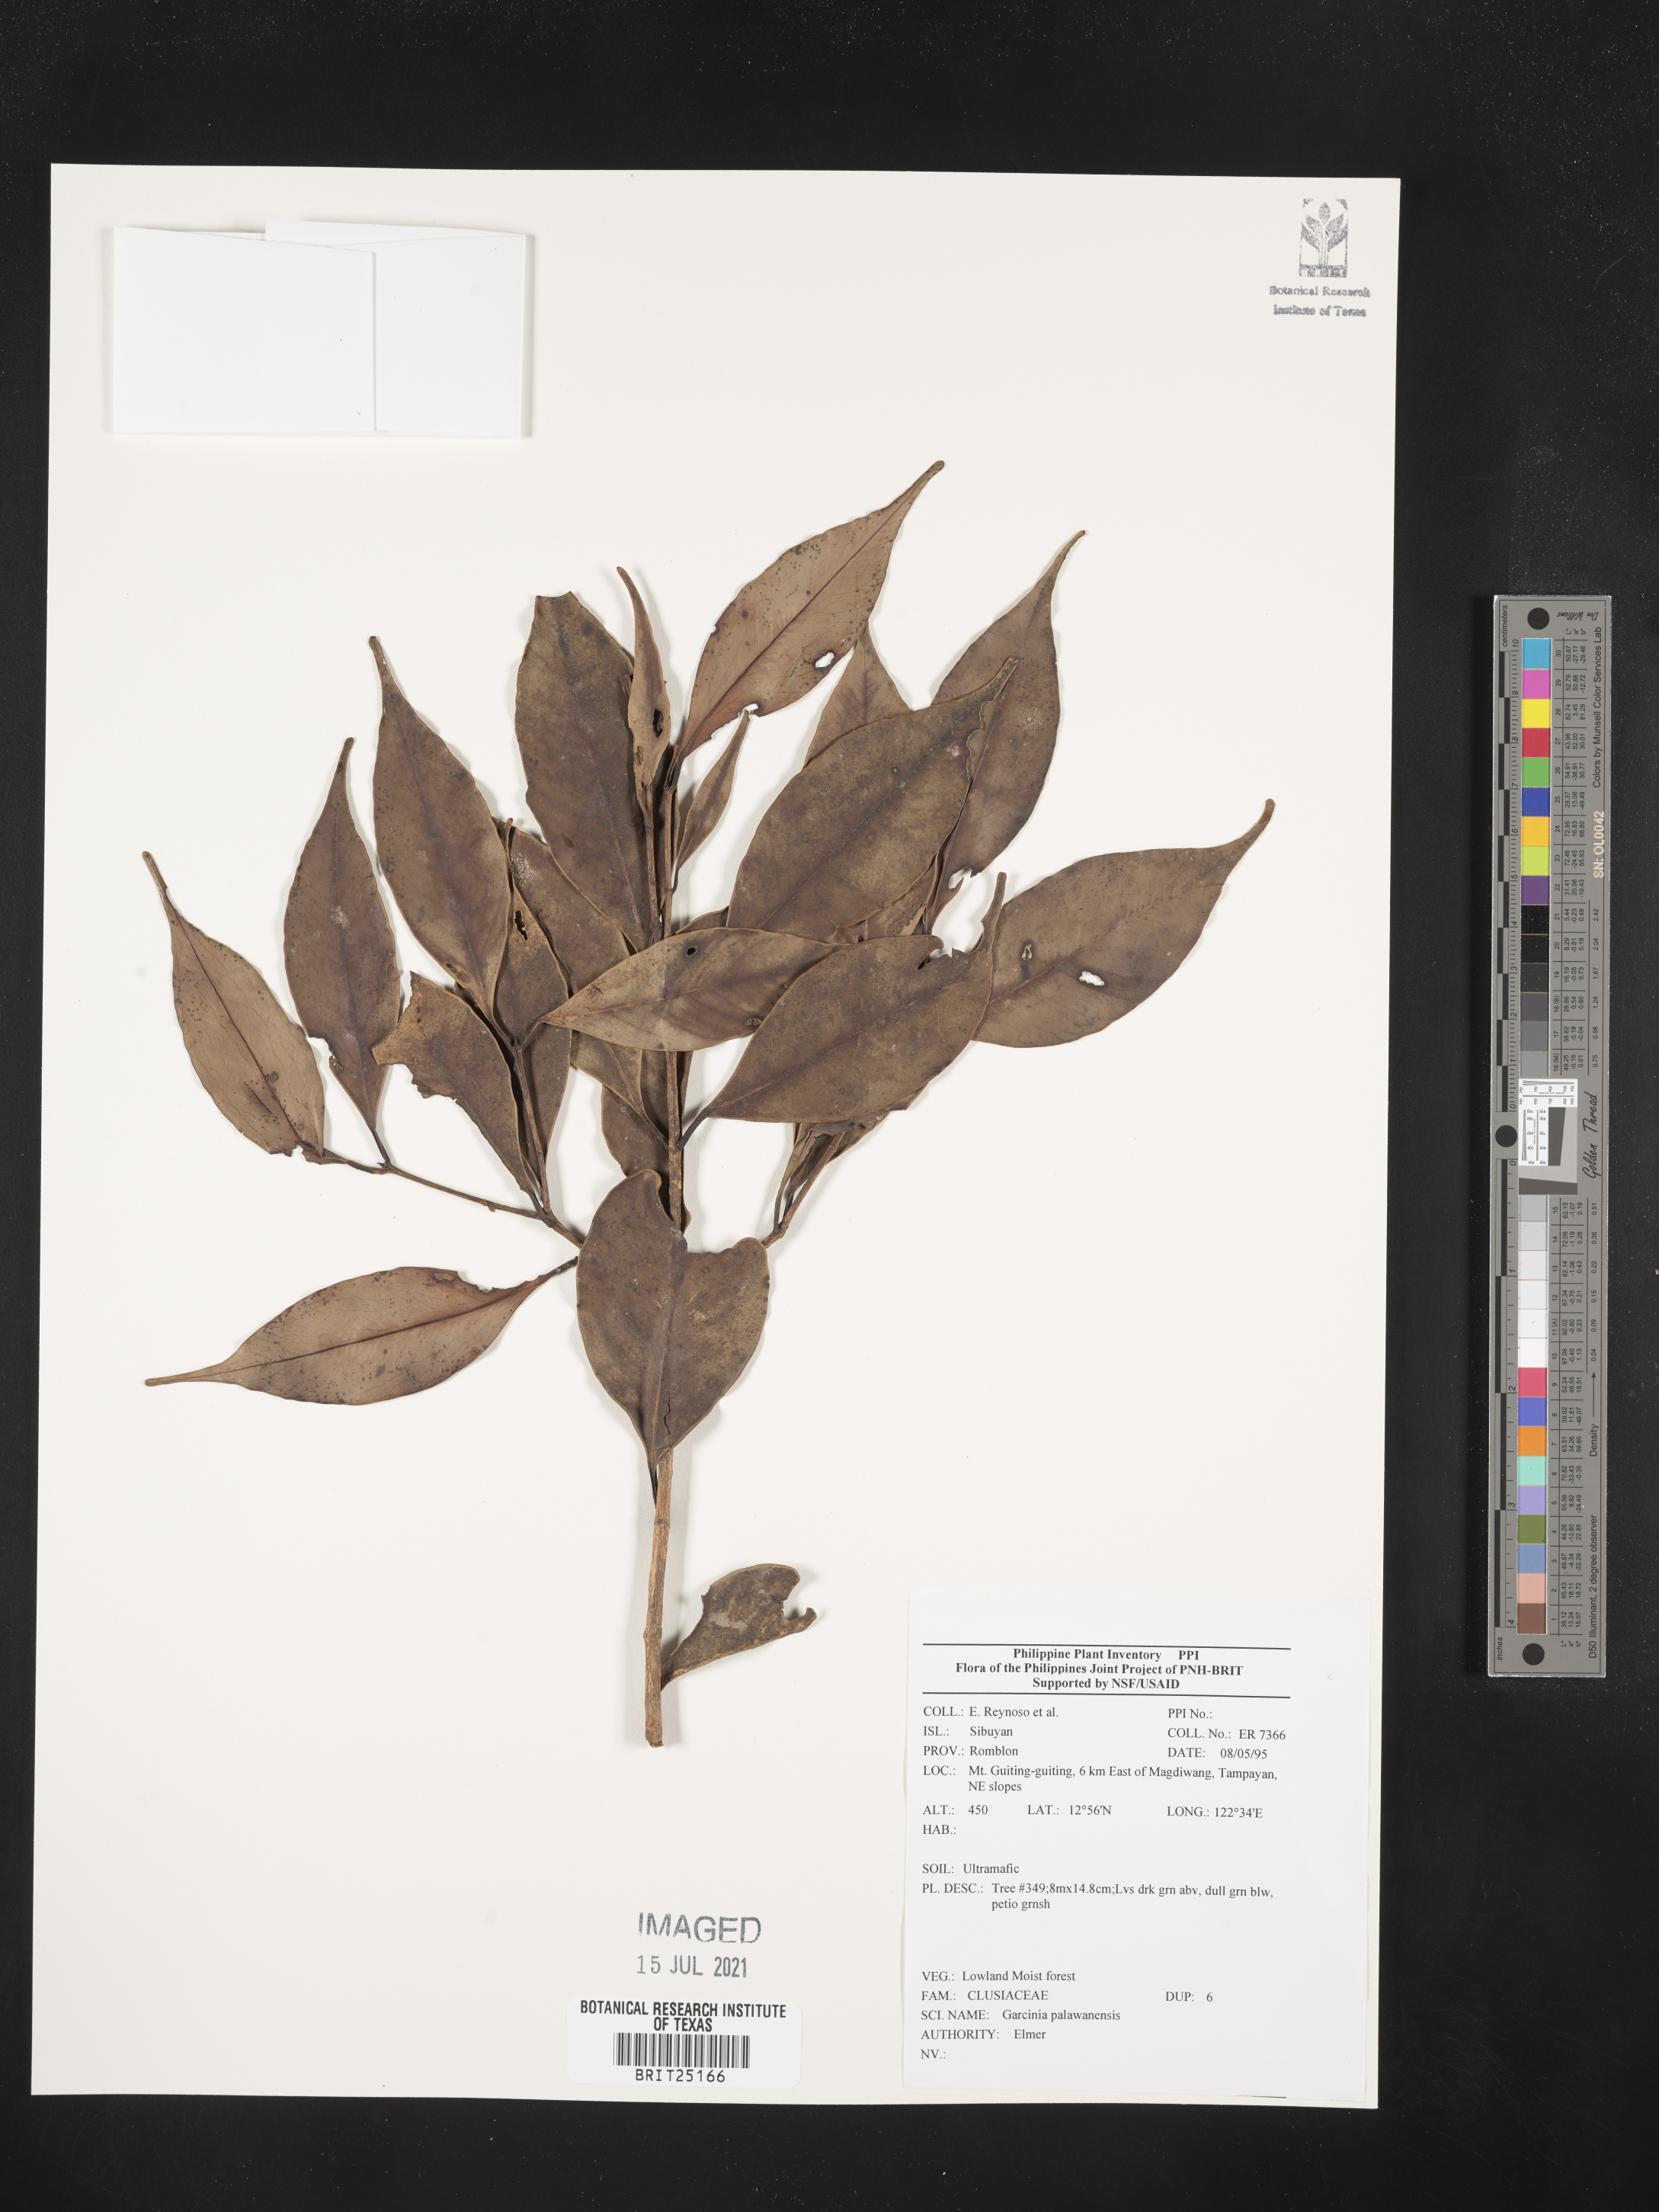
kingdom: Plantae
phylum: Tracheophyta
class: Magnoliopsida
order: Malpighiales
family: Clusiaceae
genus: Garcinia
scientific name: Garcinia dives
